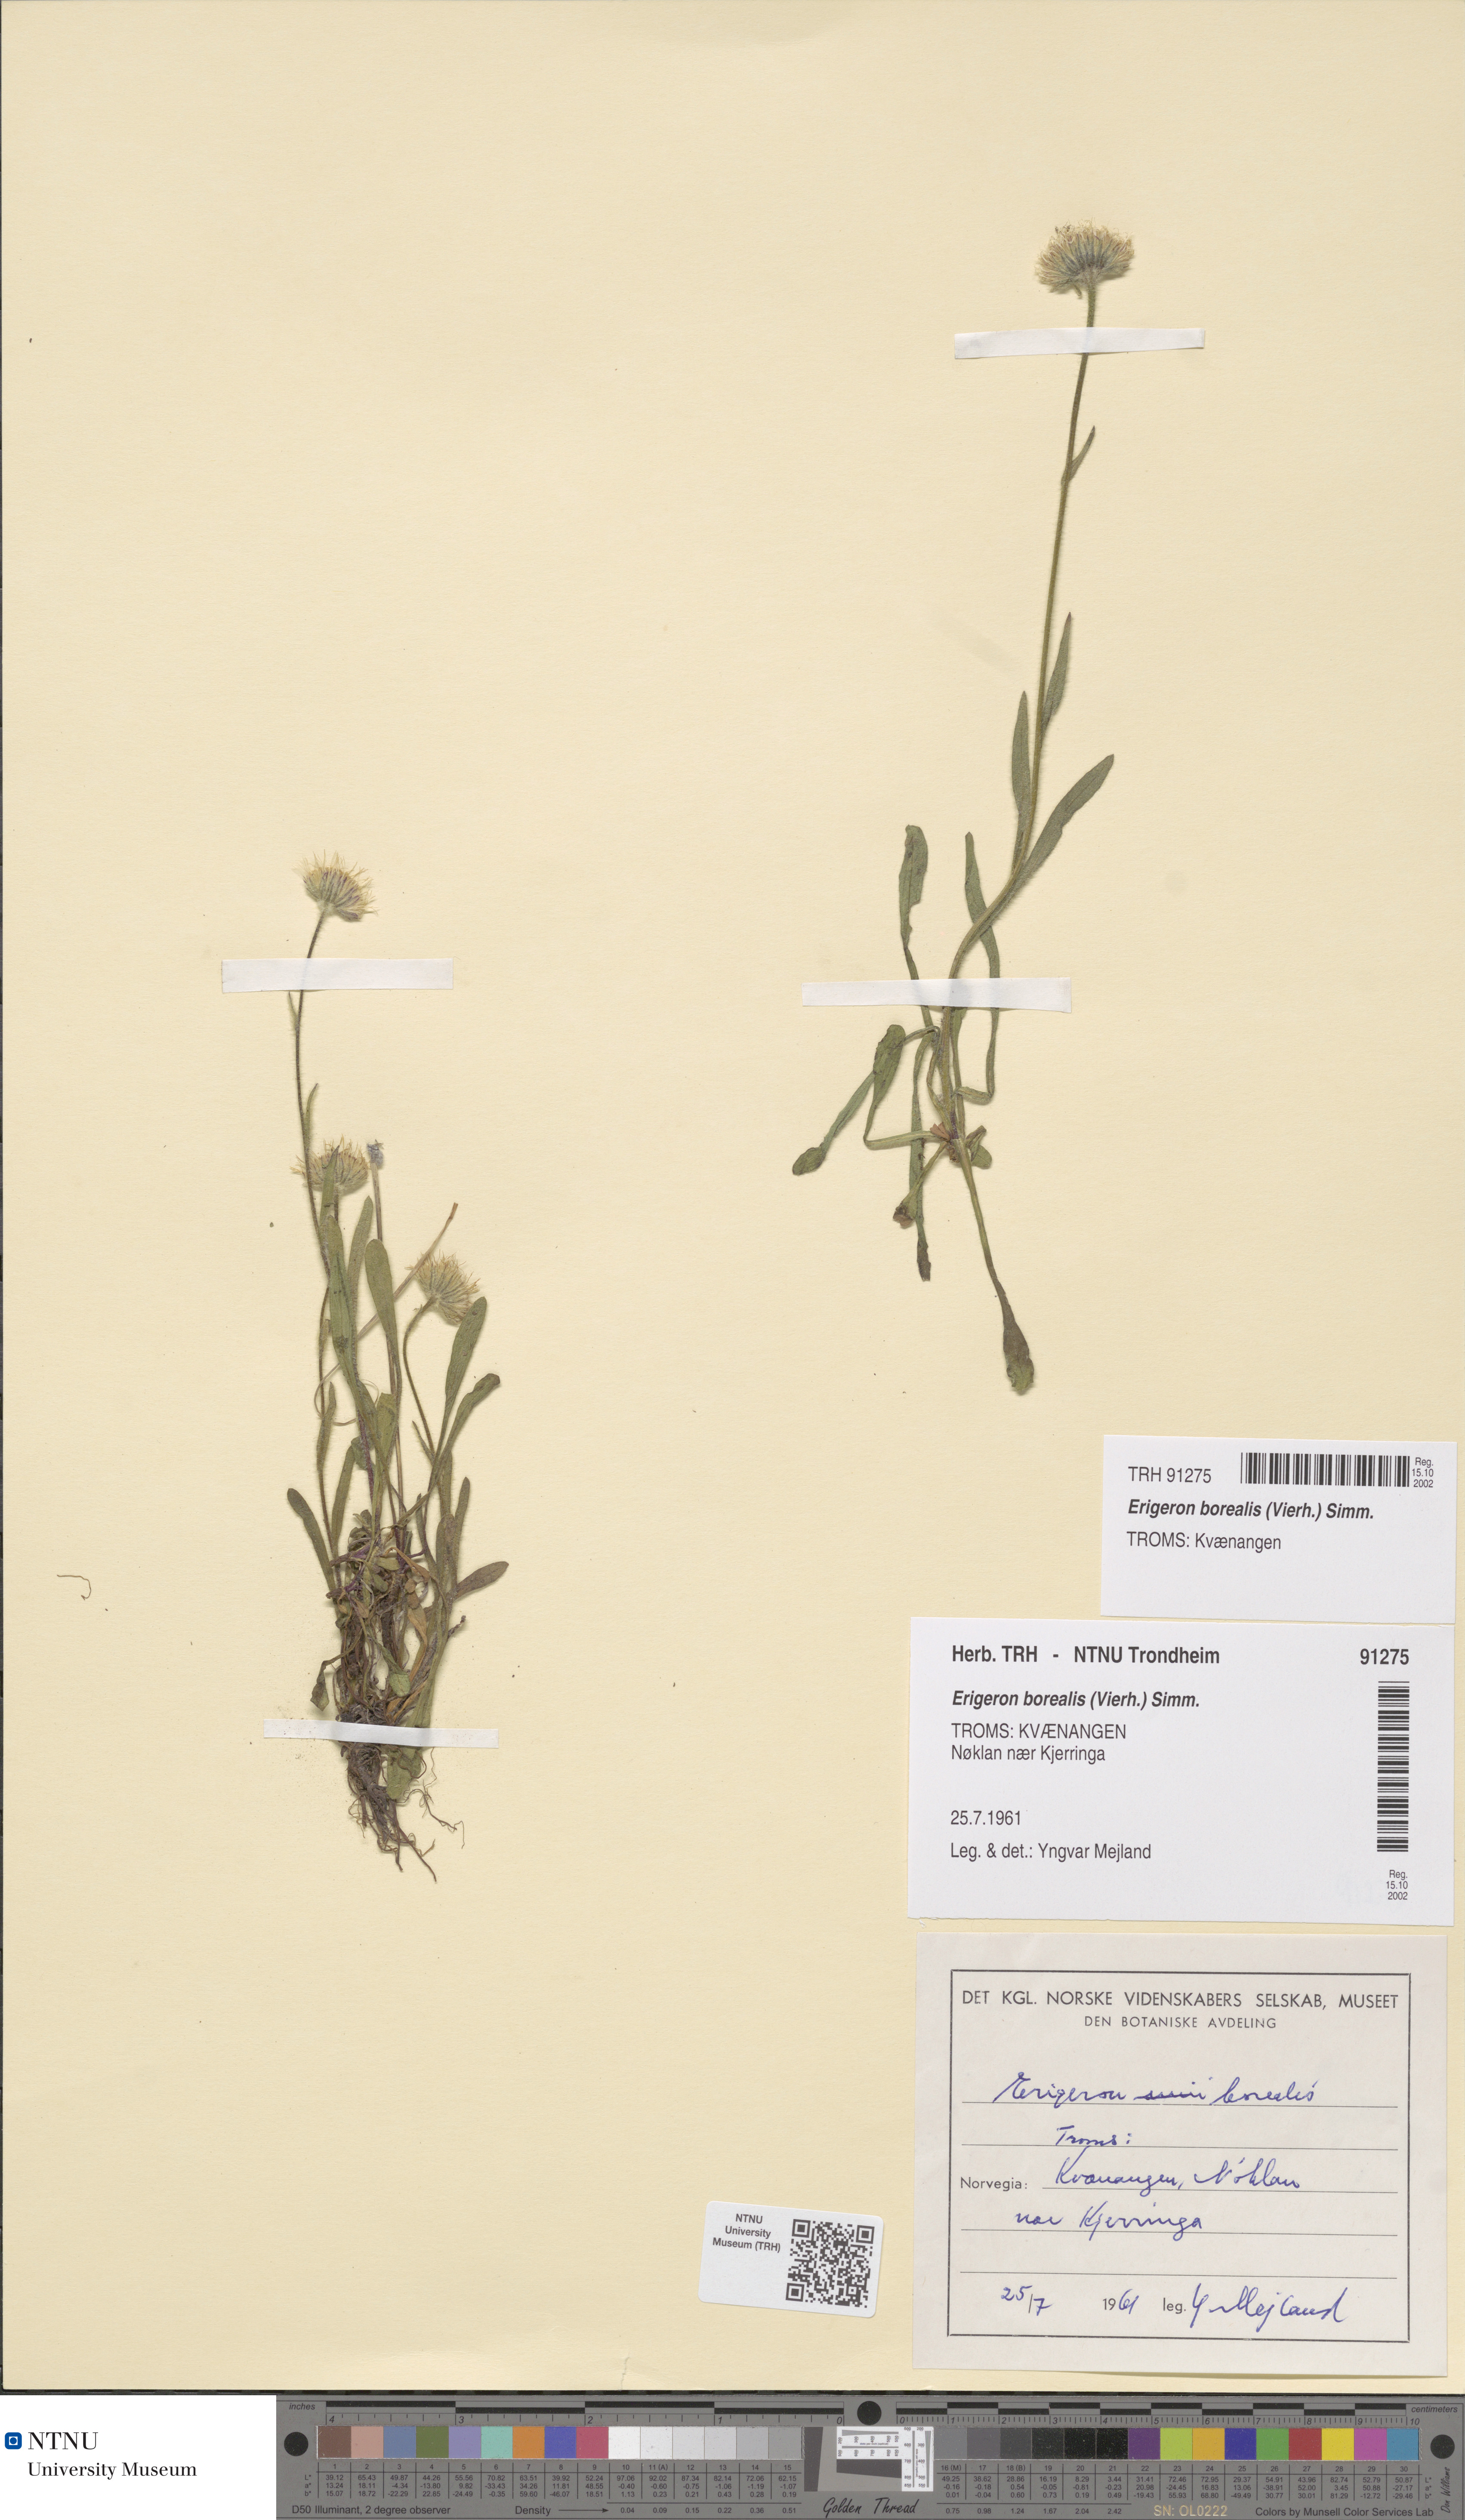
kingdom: Plantae
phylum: Tracheophyta
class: Magnoliopsida
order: Asterales
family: Asteraceae
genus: Erigeron
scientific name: Erigeron borealis
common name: Alpine fleabane
